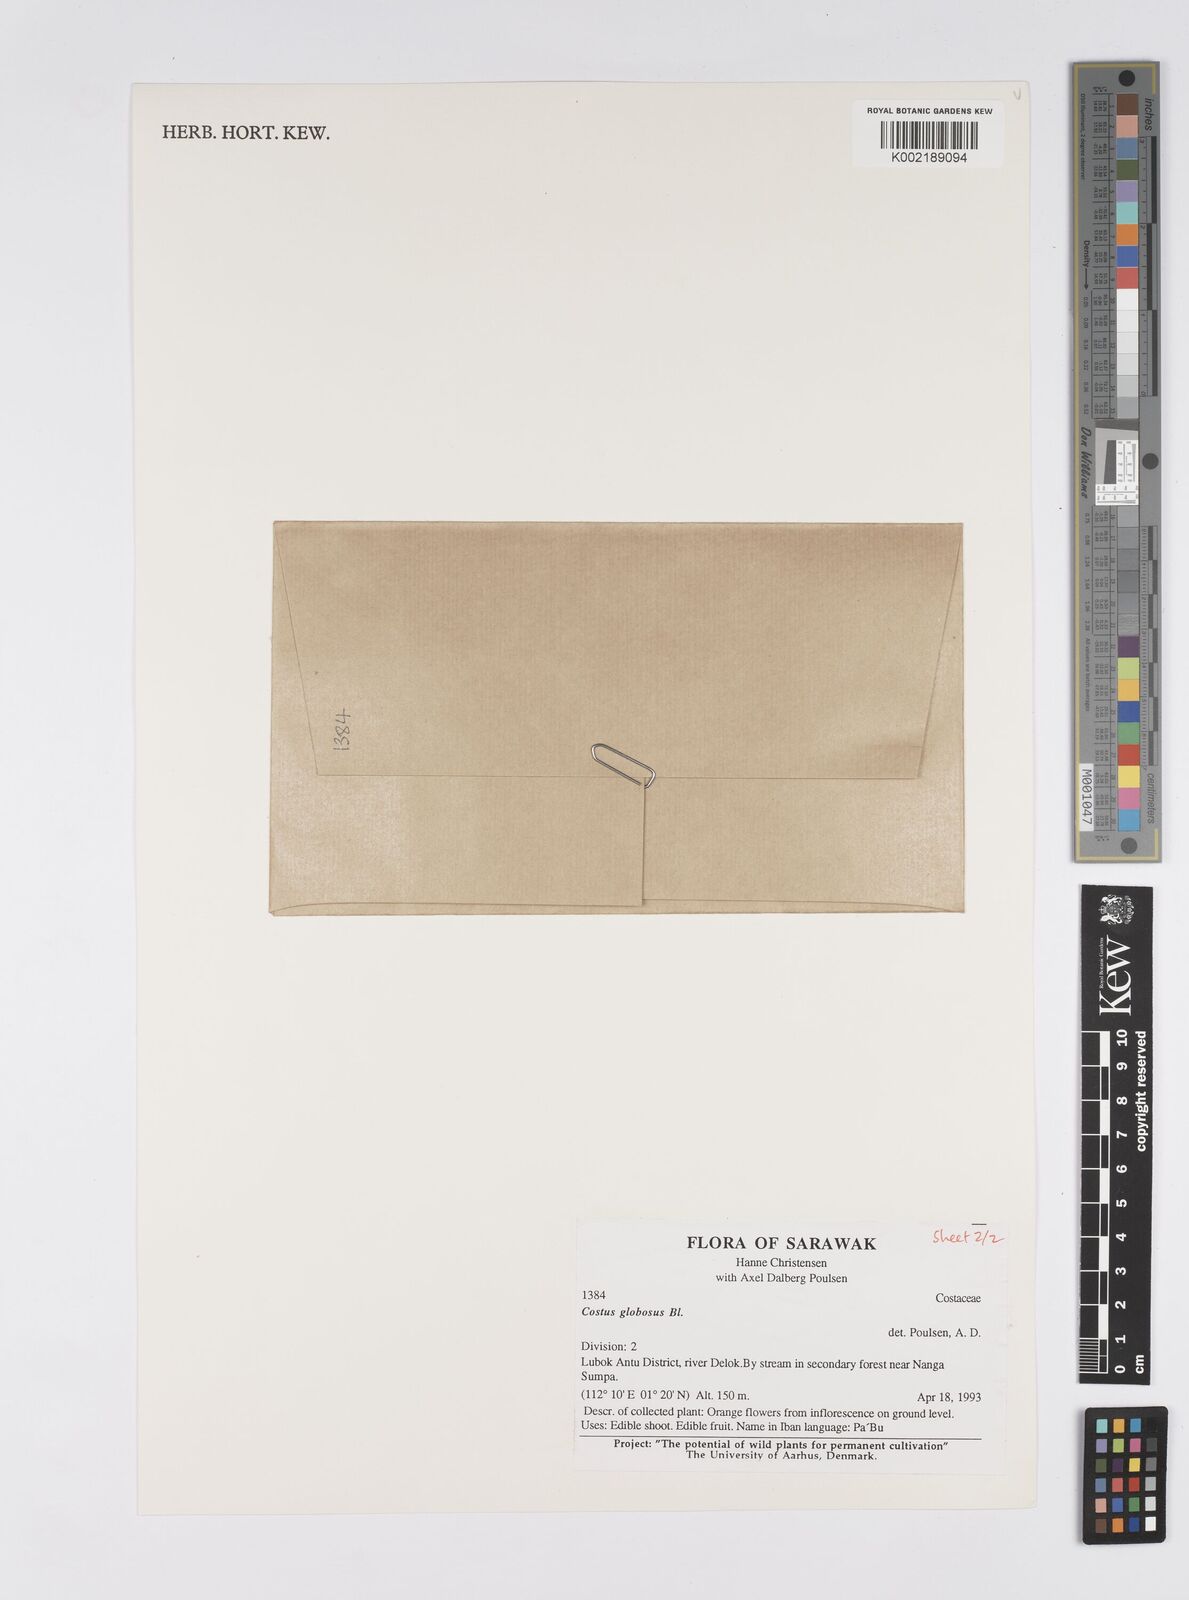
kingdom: Plantae
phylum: Tracheophyta
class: Liliopsida
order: Zingiberales
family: Costaceae
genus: Hellenia
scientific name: Hellenia globosa
